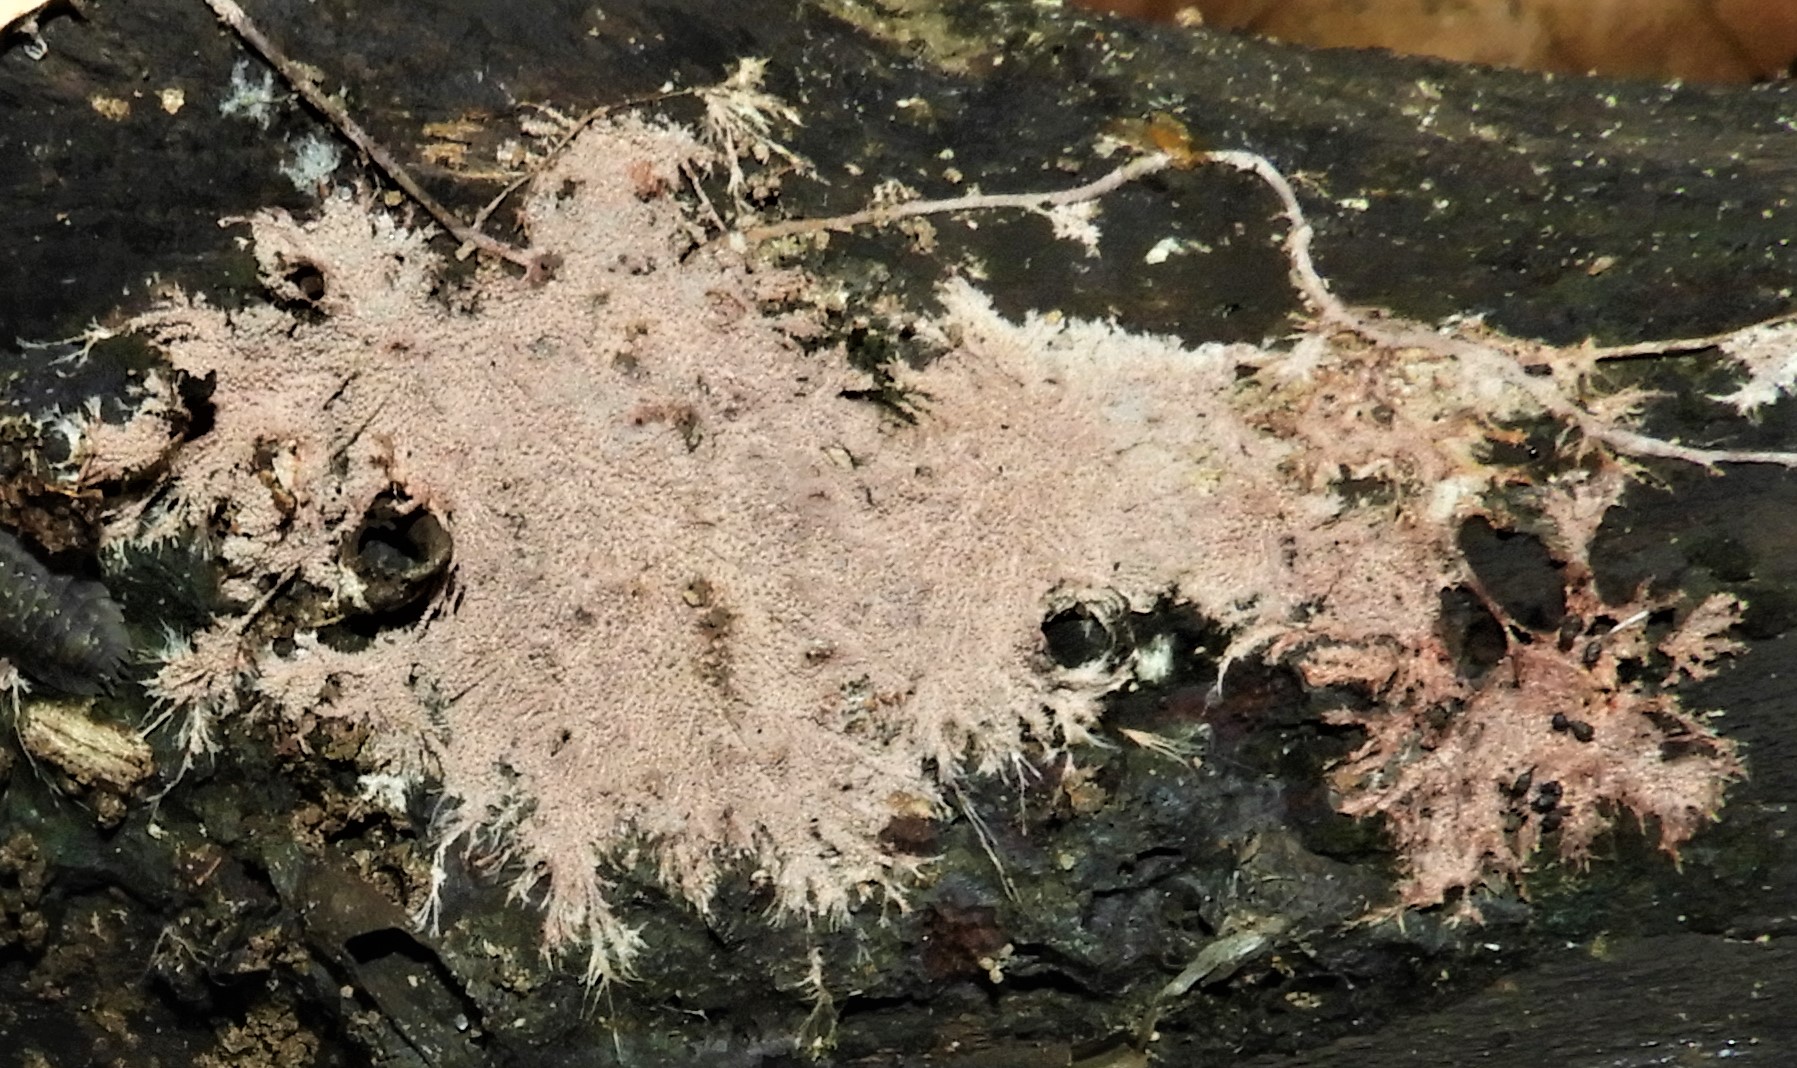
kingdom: Fungi
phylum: Basidiomycota
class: Agaricomycetes
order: Polyporales
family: Steccherinaceae
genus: Steccherinum
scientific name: Steccherinum fimbriatum
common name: trådet skønpig
